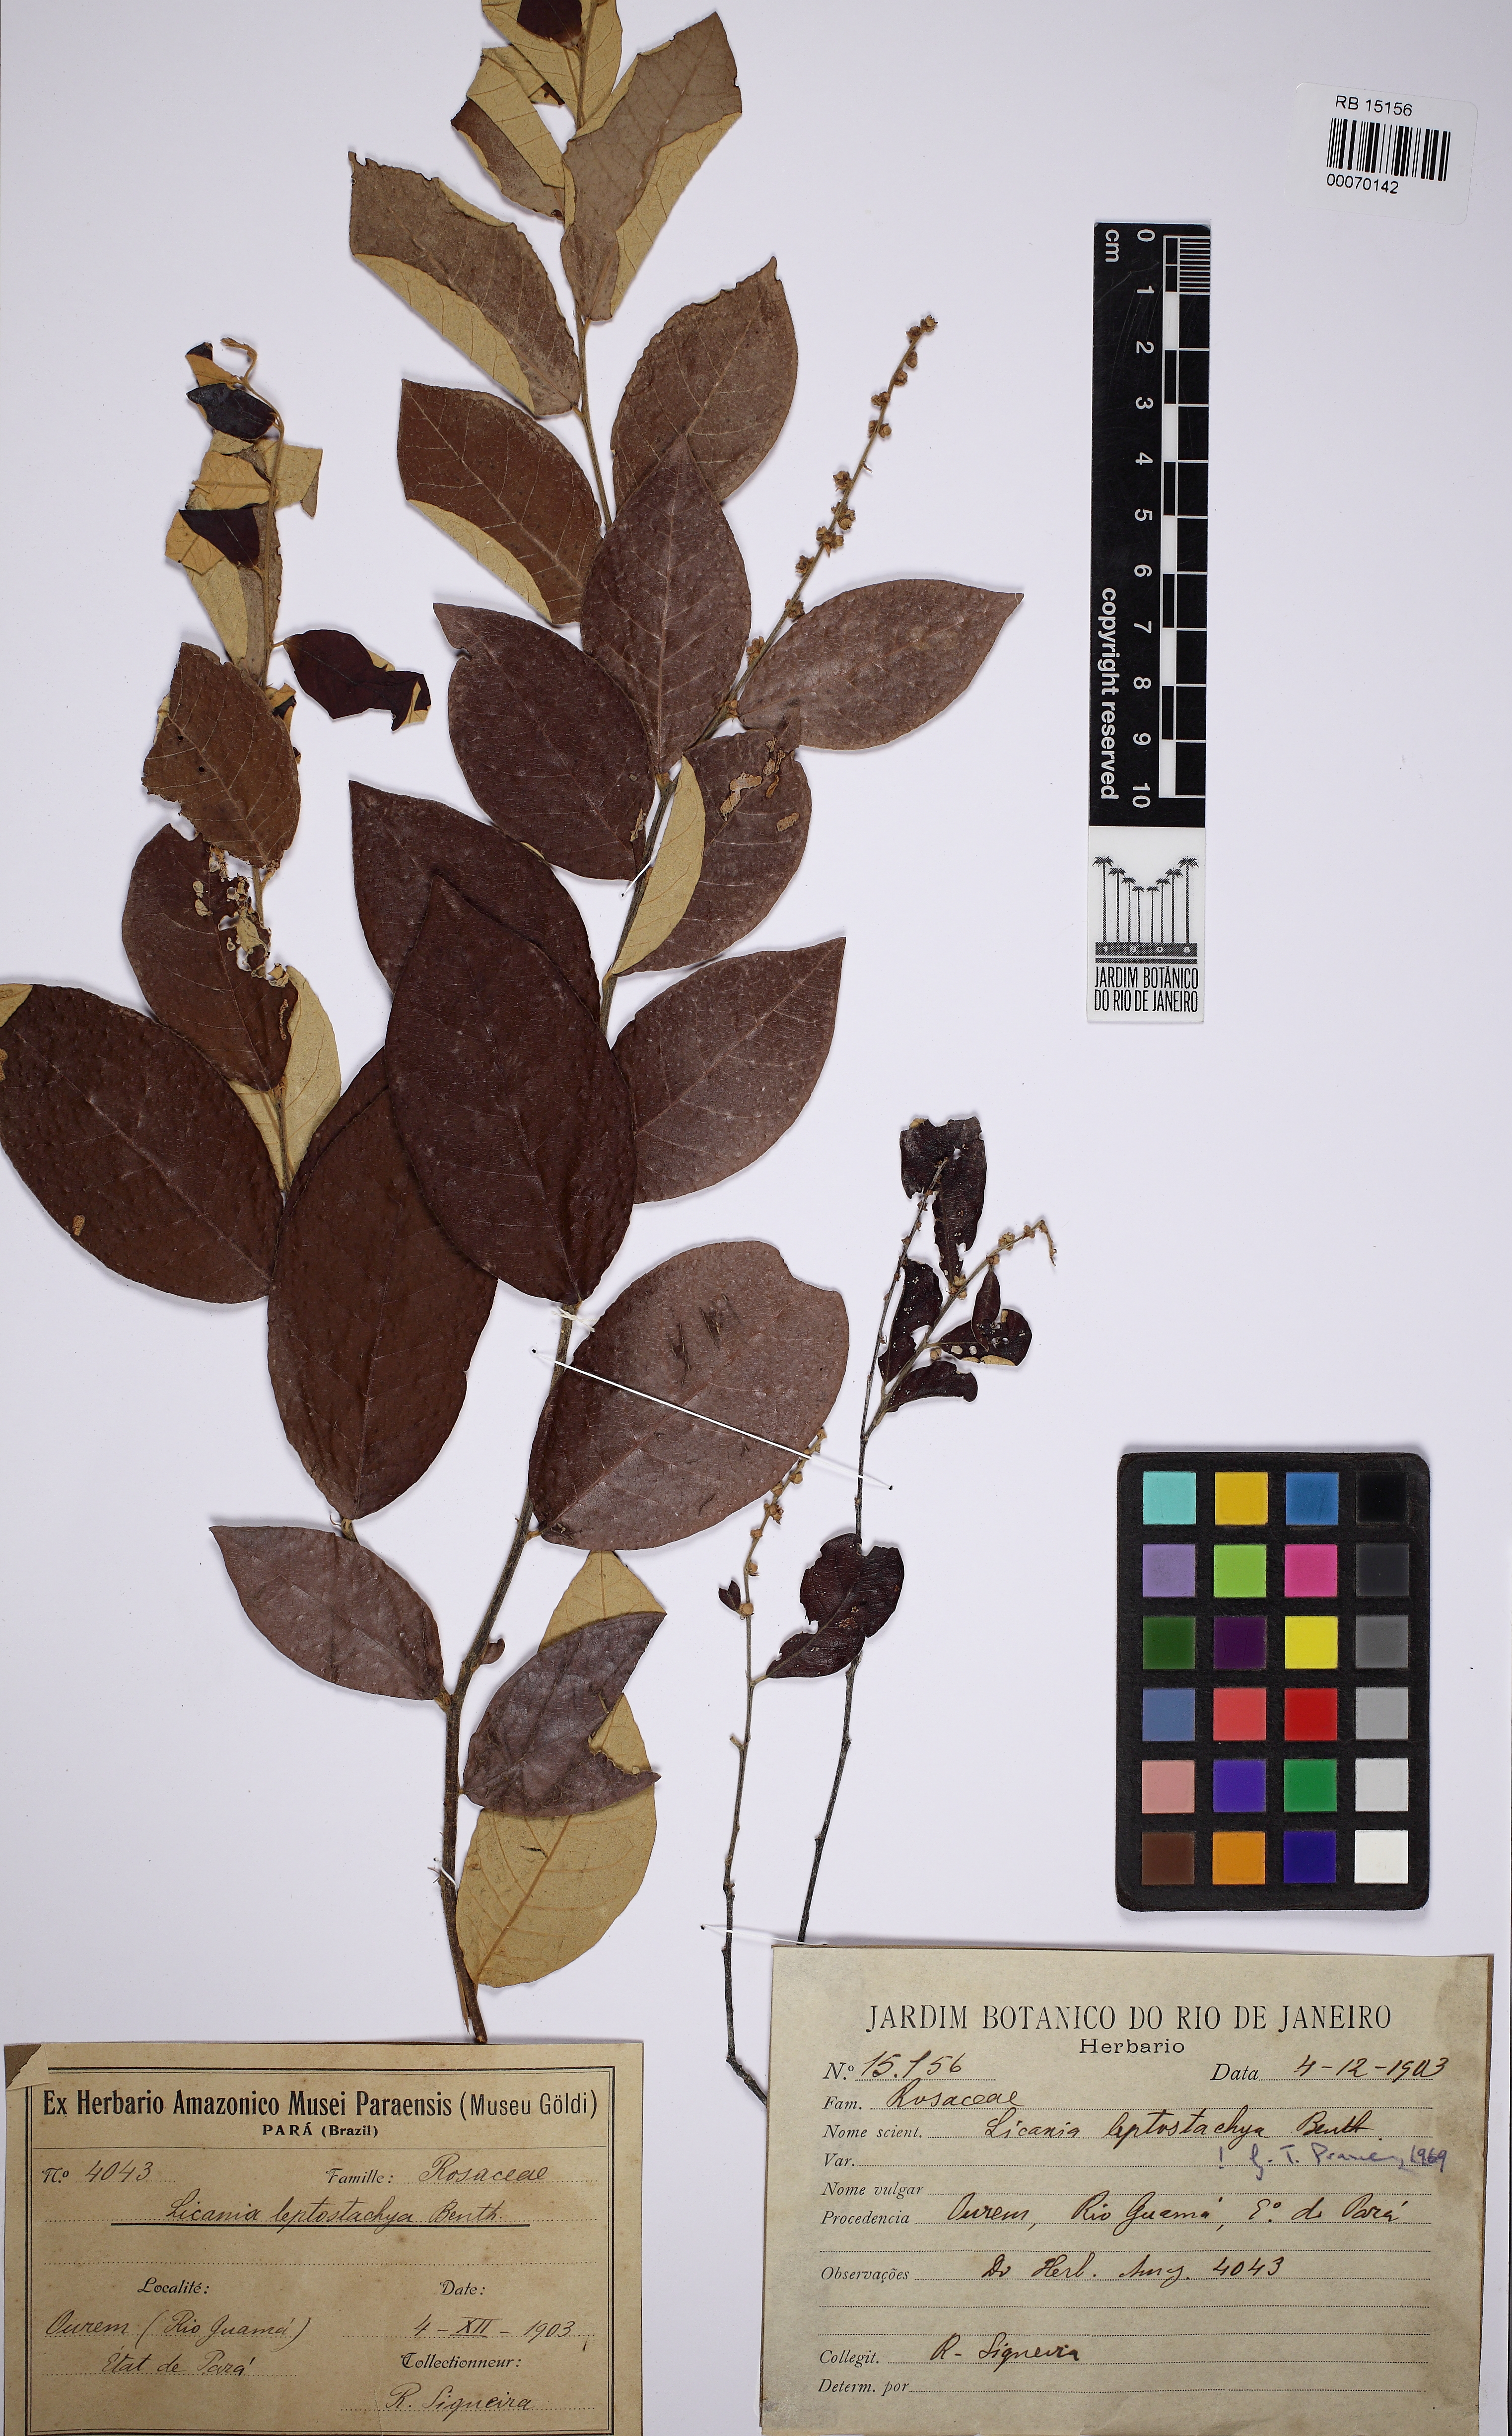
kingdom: Plantae
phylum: Tracheophyta
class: Magnoliopsida
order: Malpighiales
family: Chrysobalanaceae
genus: Licania
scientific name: Licania leptostachya
